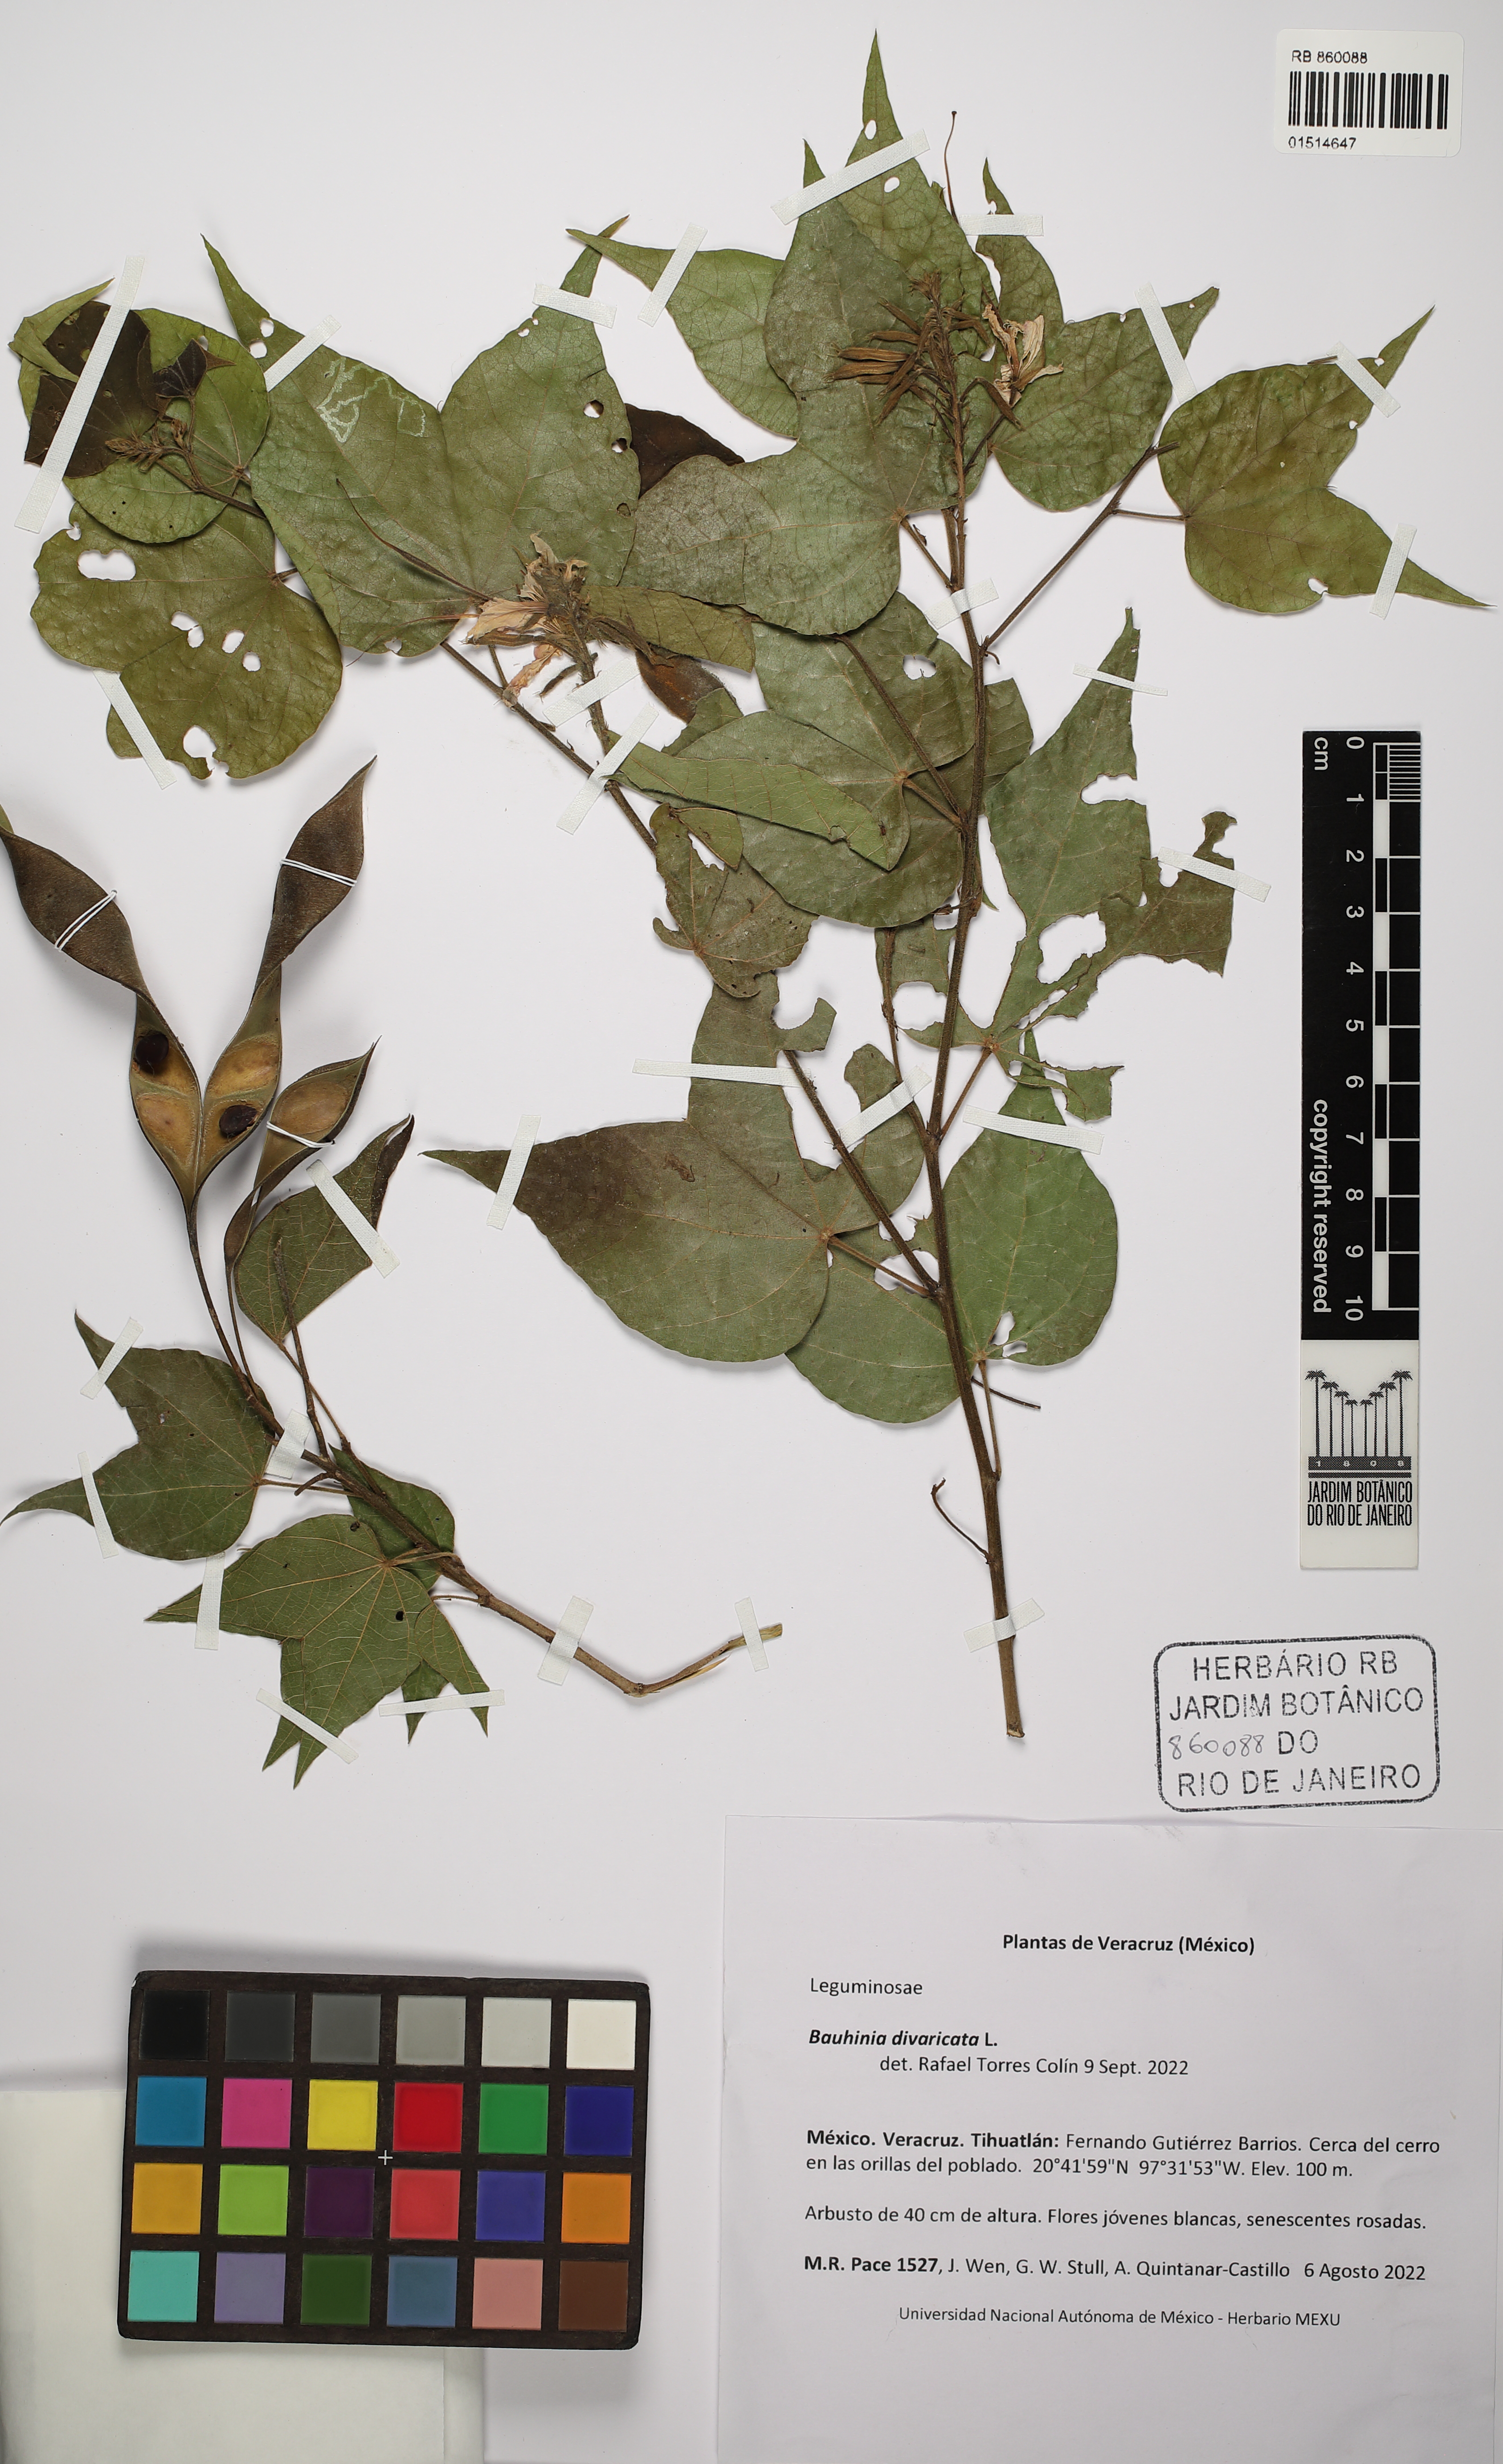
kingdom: Plantae
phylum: Tracheophyta
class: Magnoliopsida
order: Fabales
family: Fabaceae
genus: Bauhinia
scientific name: Bauhinia divaricata
